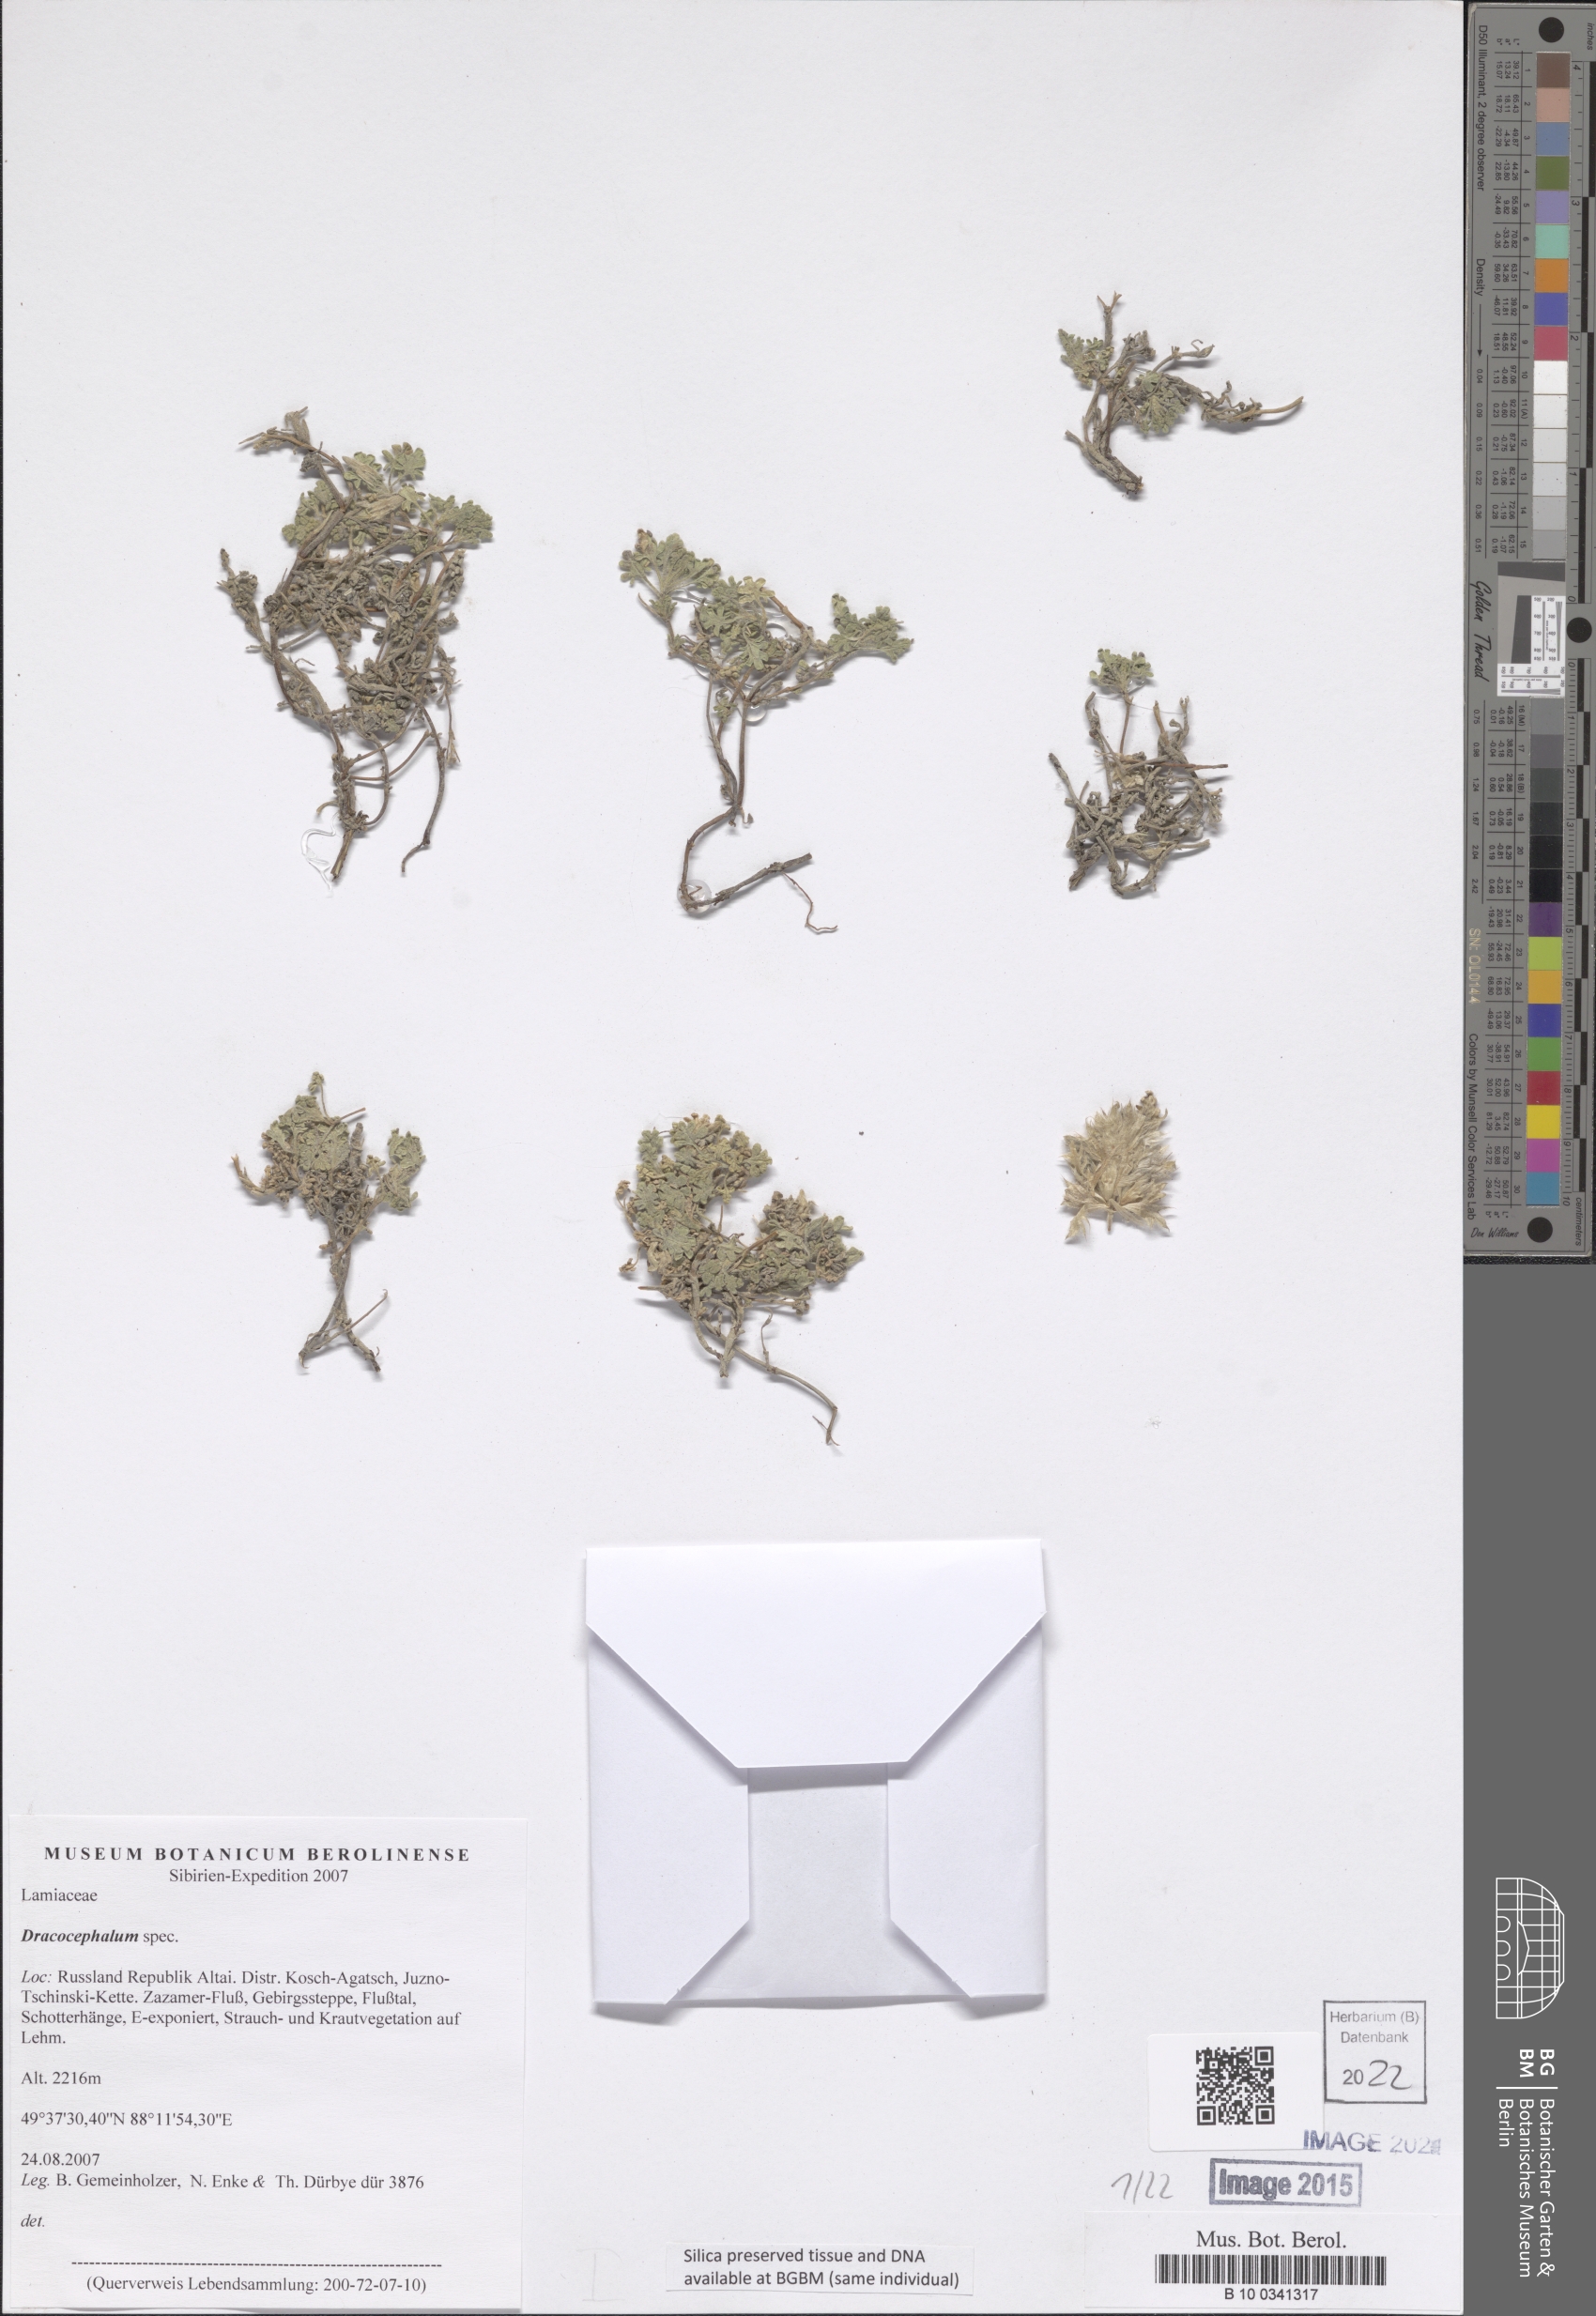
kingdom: Plantae
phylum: Tracheophyta
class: Magnoliopsida
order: Lamiales
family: Lamiaceae
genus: Dracocephalum
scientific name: Dracocephalum
